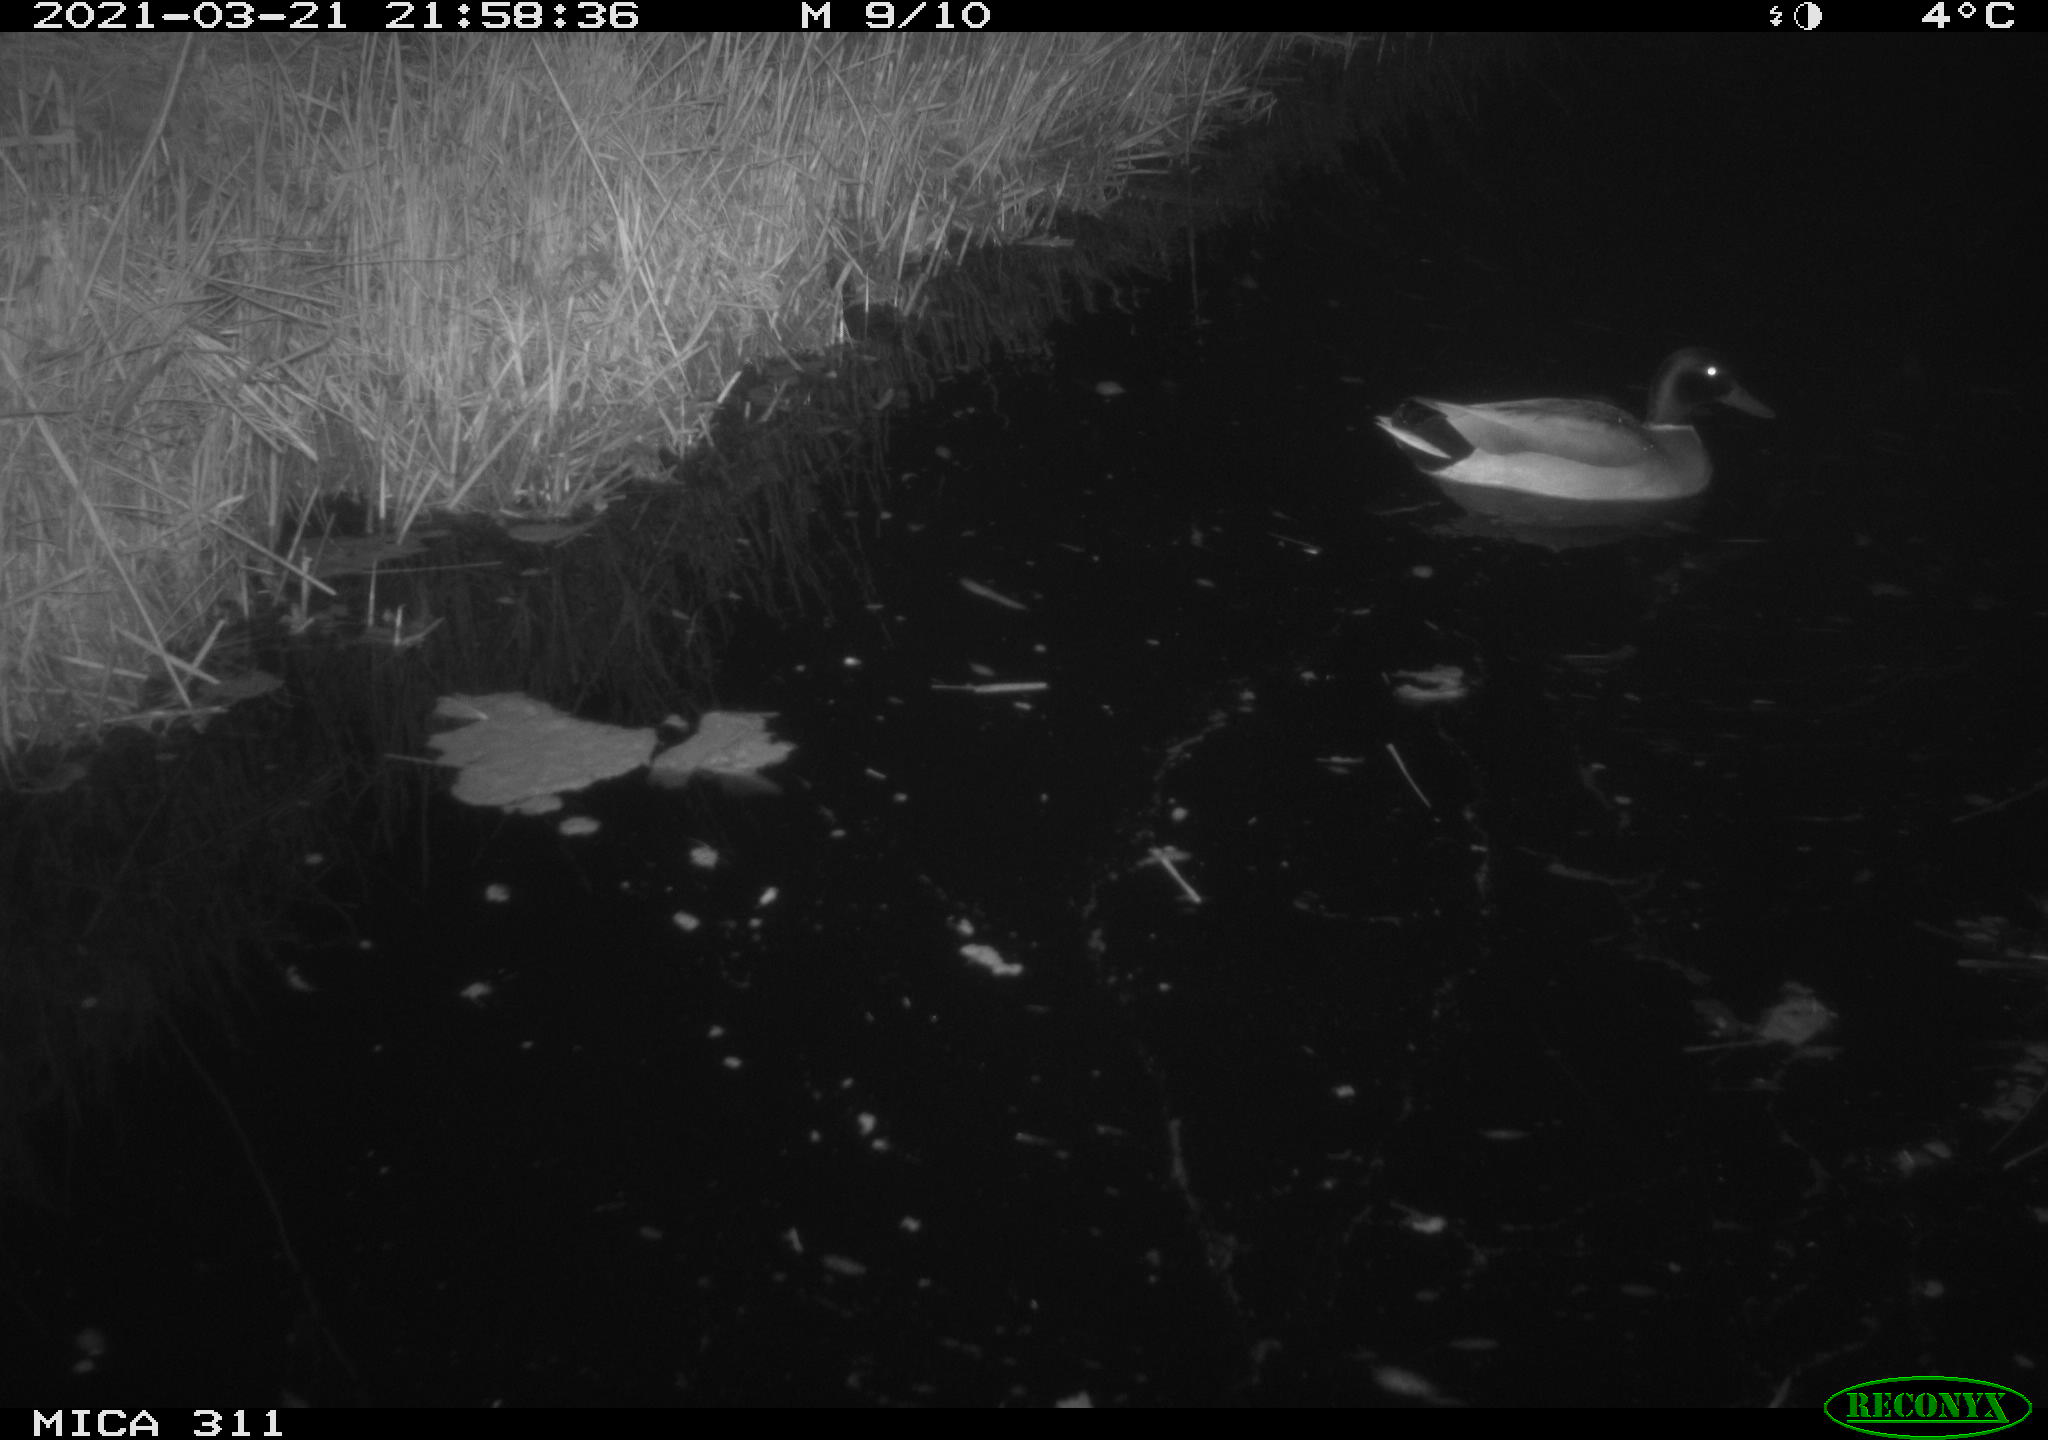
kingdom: Animalia
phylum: Chordata
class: Aves
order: Anseriformes
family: Anatidae
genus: Anas
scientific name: Anas platyrhynchos
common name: Mallard
